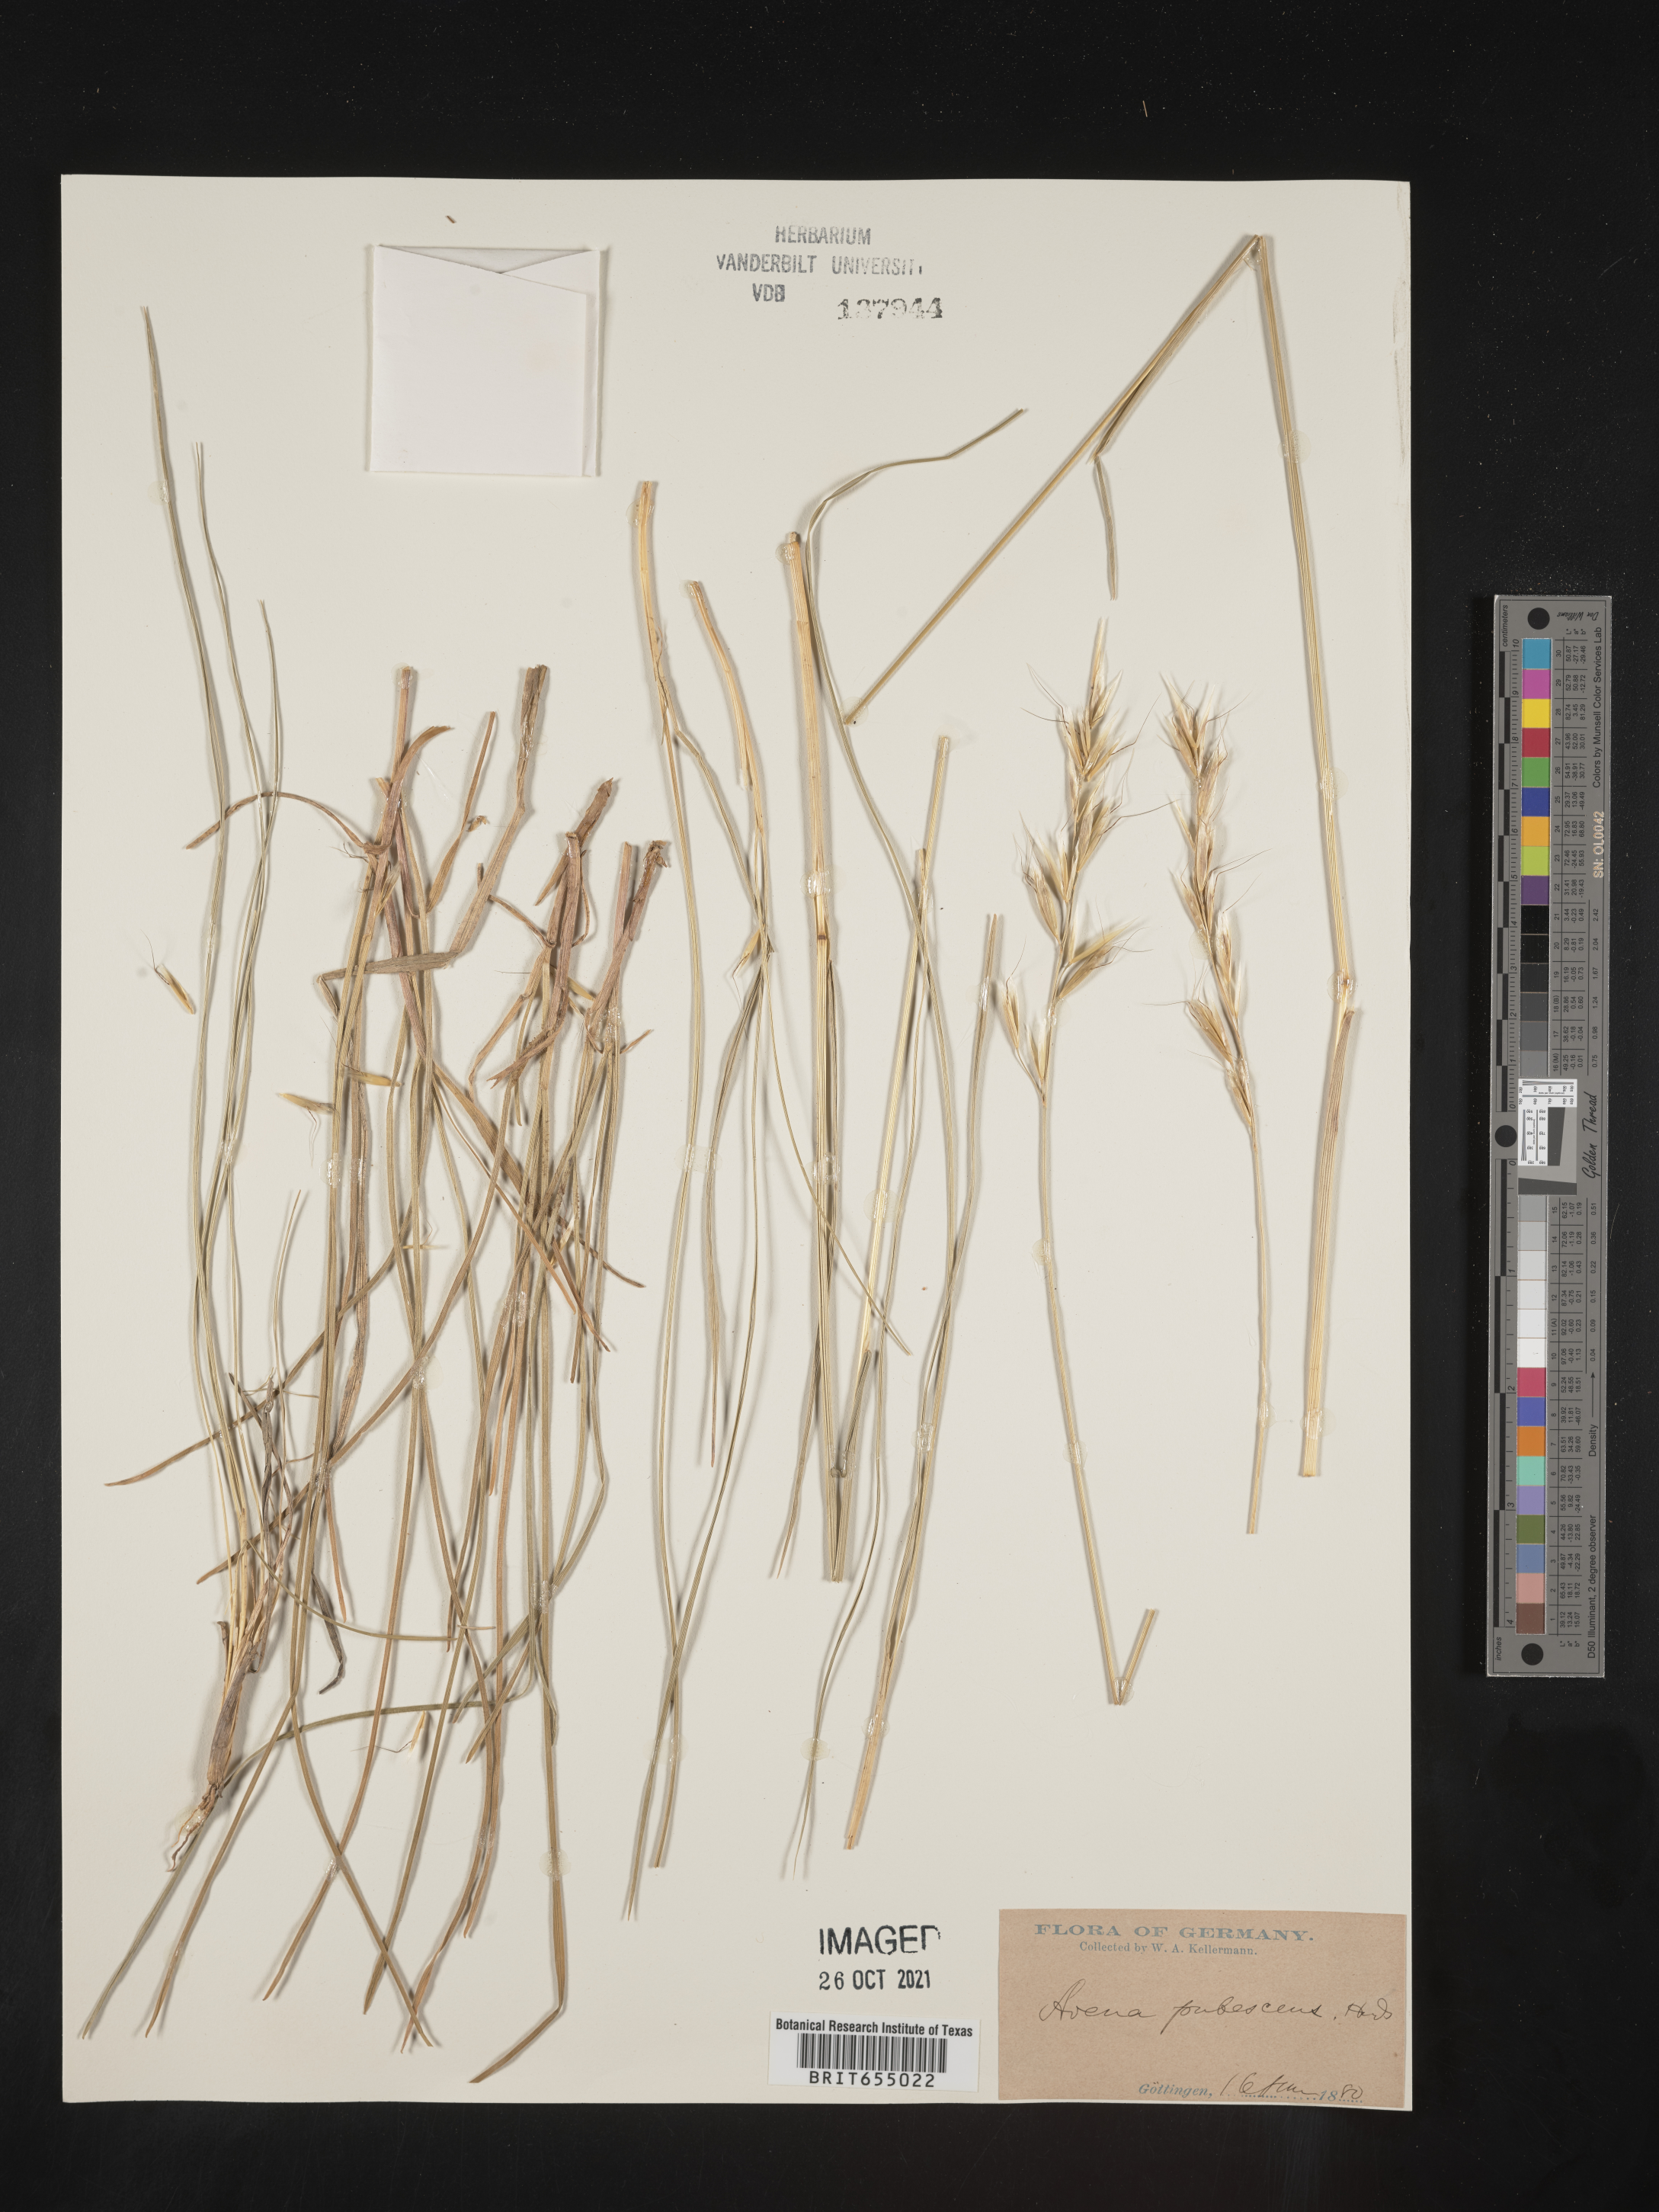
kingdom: Plantae
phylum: Tracheophyta
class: Liliopsida
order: Poales
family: Poaceae
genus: Avena
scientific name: Avena
